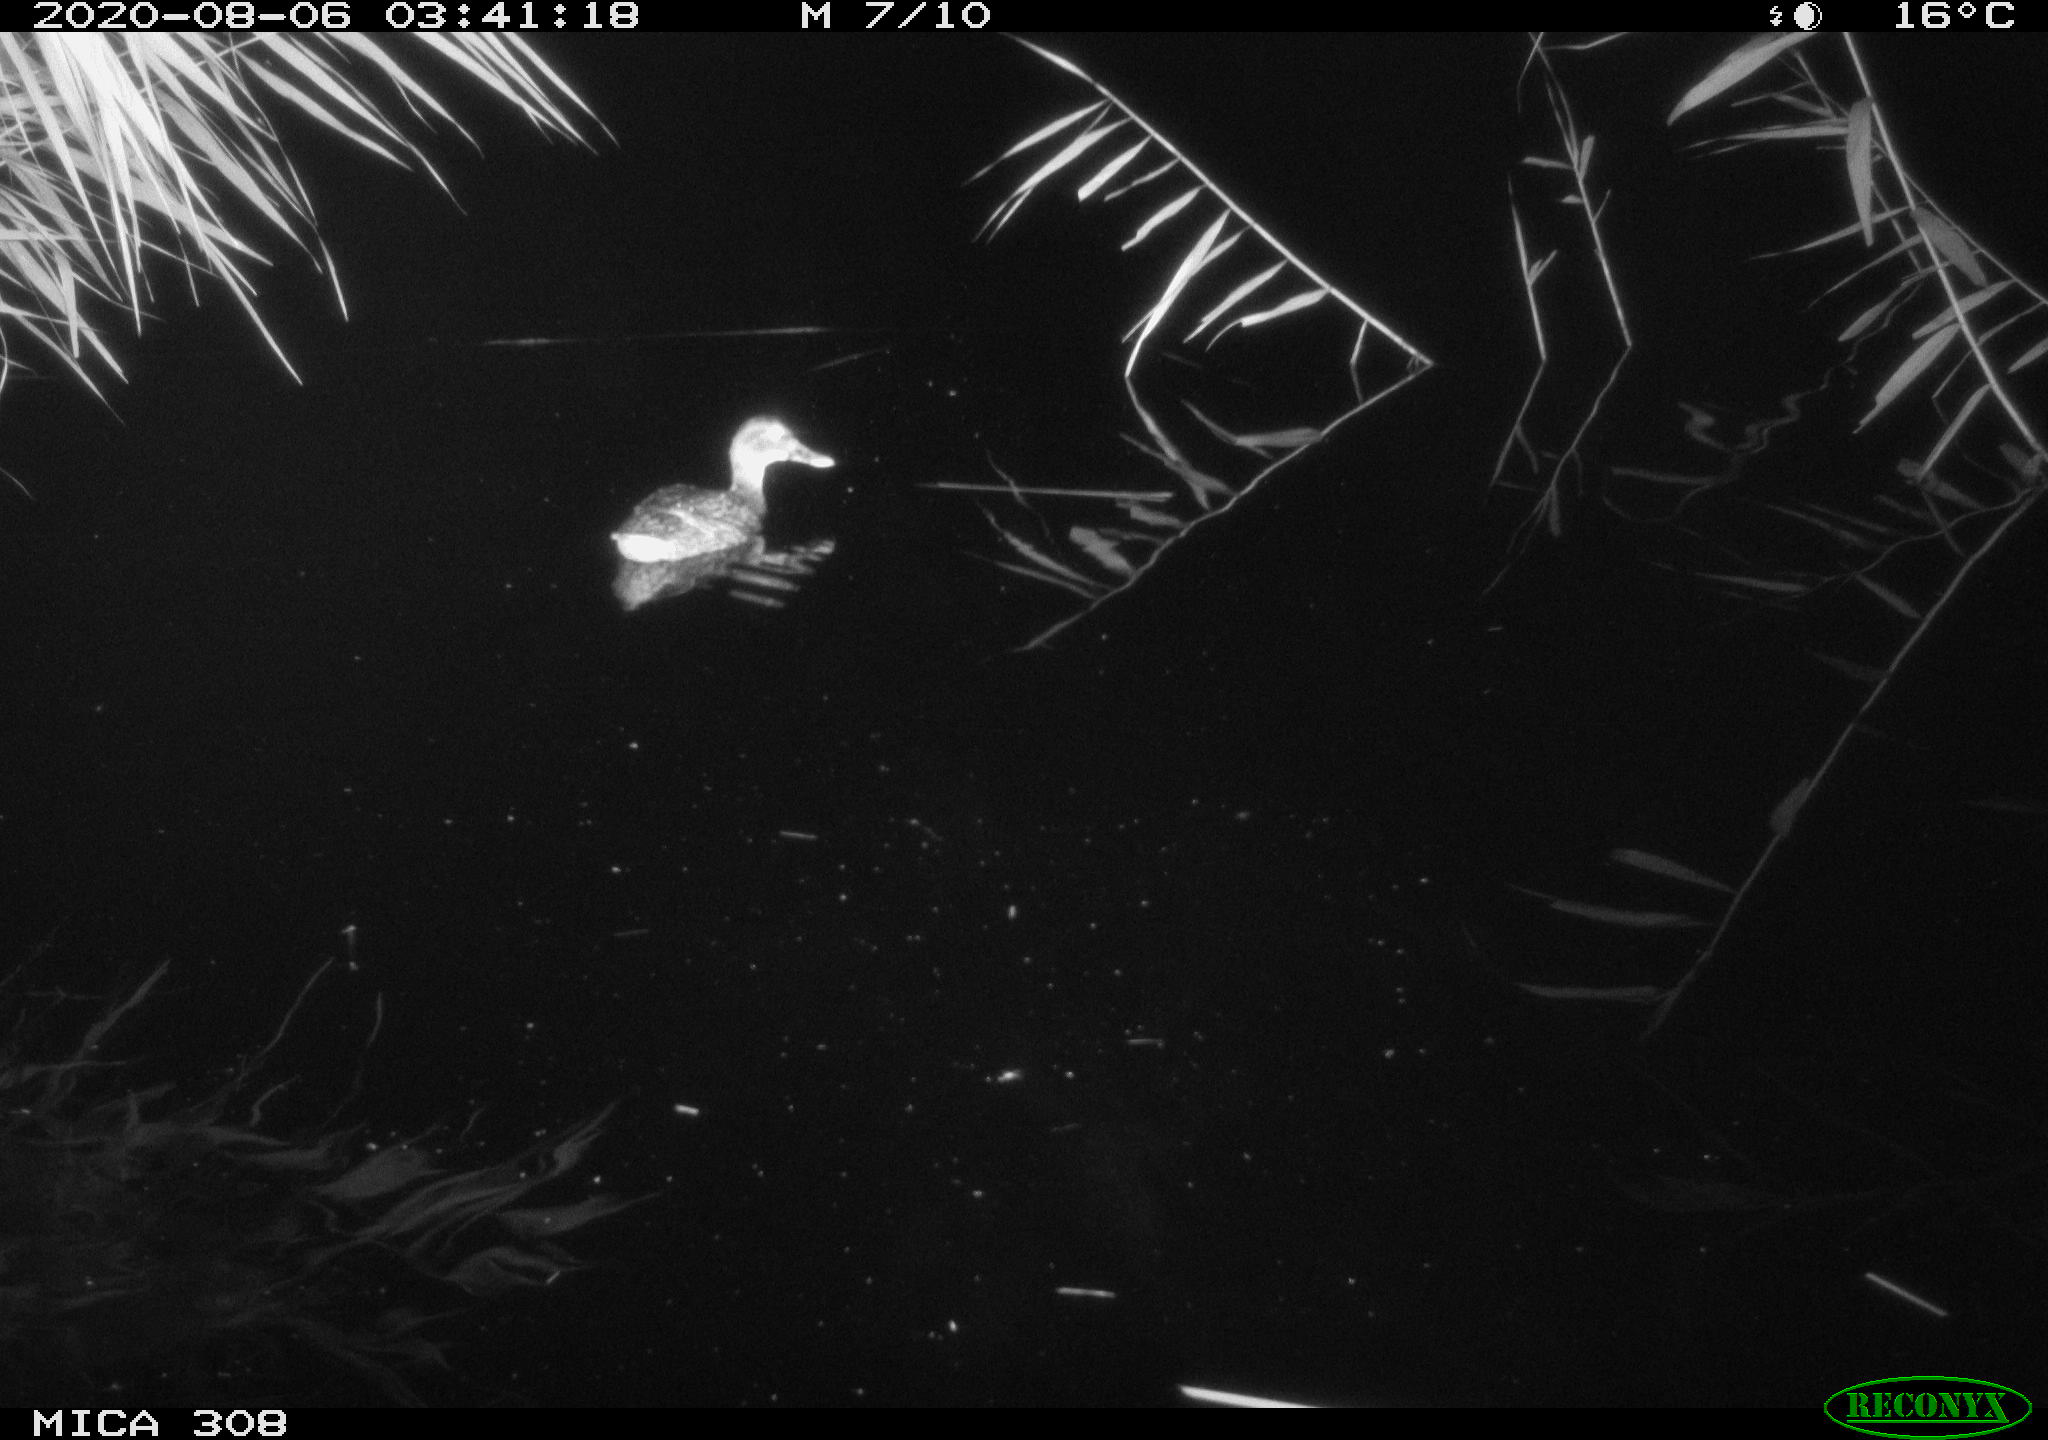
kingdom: Animalia
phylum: Chordata
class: Aves
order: Anseriformes
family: Anatidae
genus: Anas
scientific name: Anas platyrhynchos
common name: Mallard
